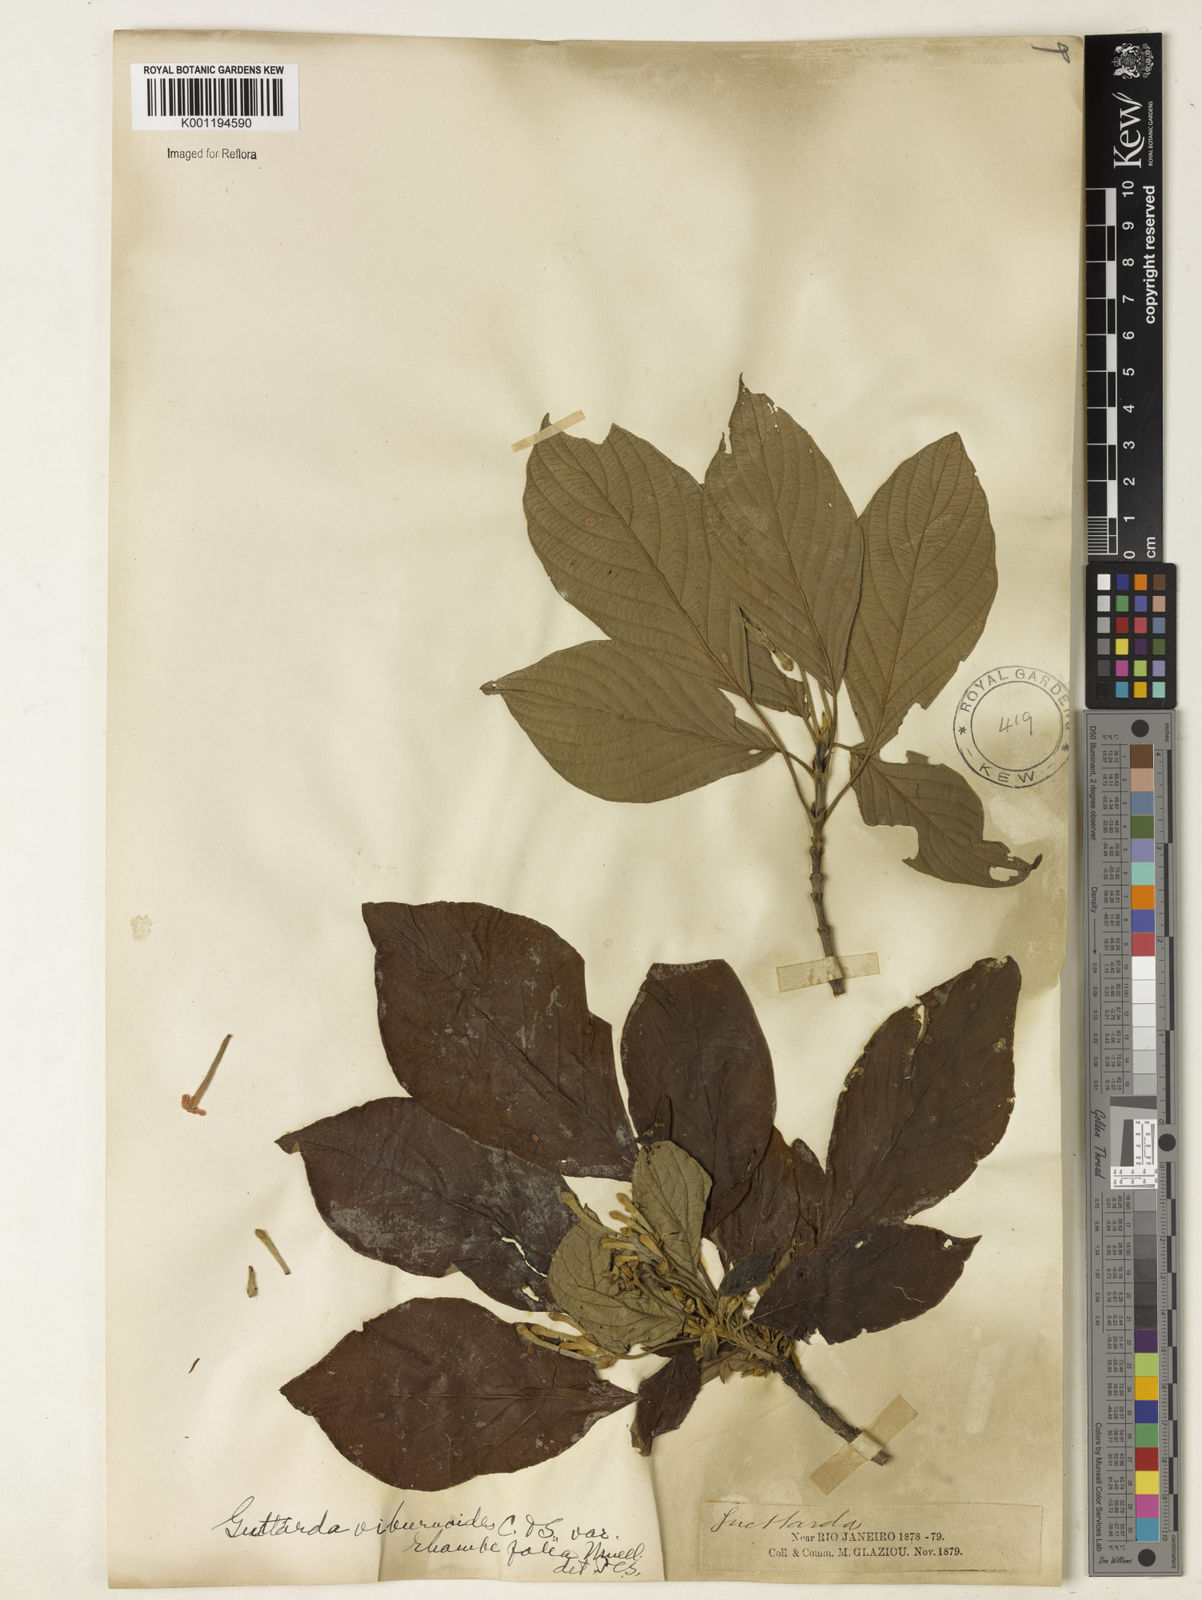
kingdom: Plantae
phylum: Tracheophyta
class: Magnoliopsida
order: Gentianales
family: Rubiaceae
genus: Guettarda
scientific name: Guettarda viburnoides
